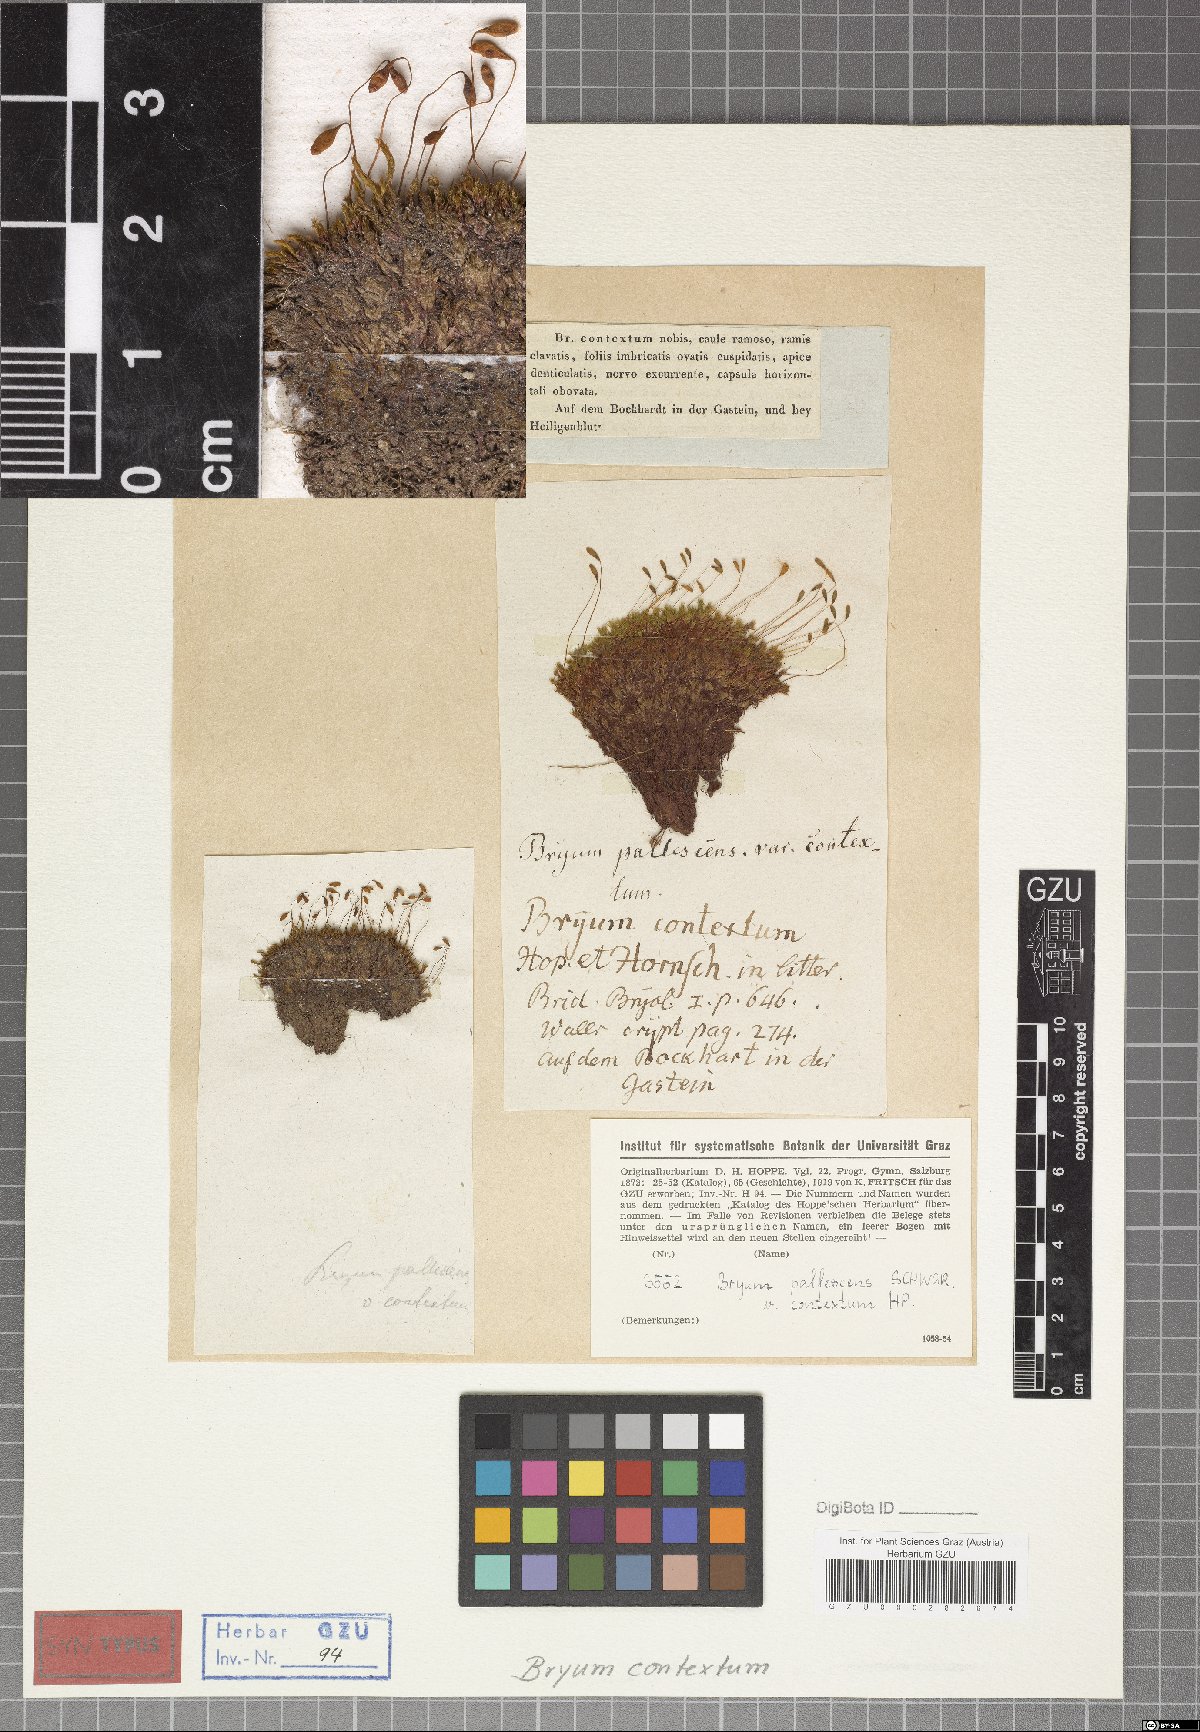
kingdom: Plantae
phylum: Bryophyta
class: Bryopsida
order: Bryales
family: Bryaceae
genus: Ptychostomum
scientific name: Ptychostomum pallescens
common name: Tall-clustered thread-moss
